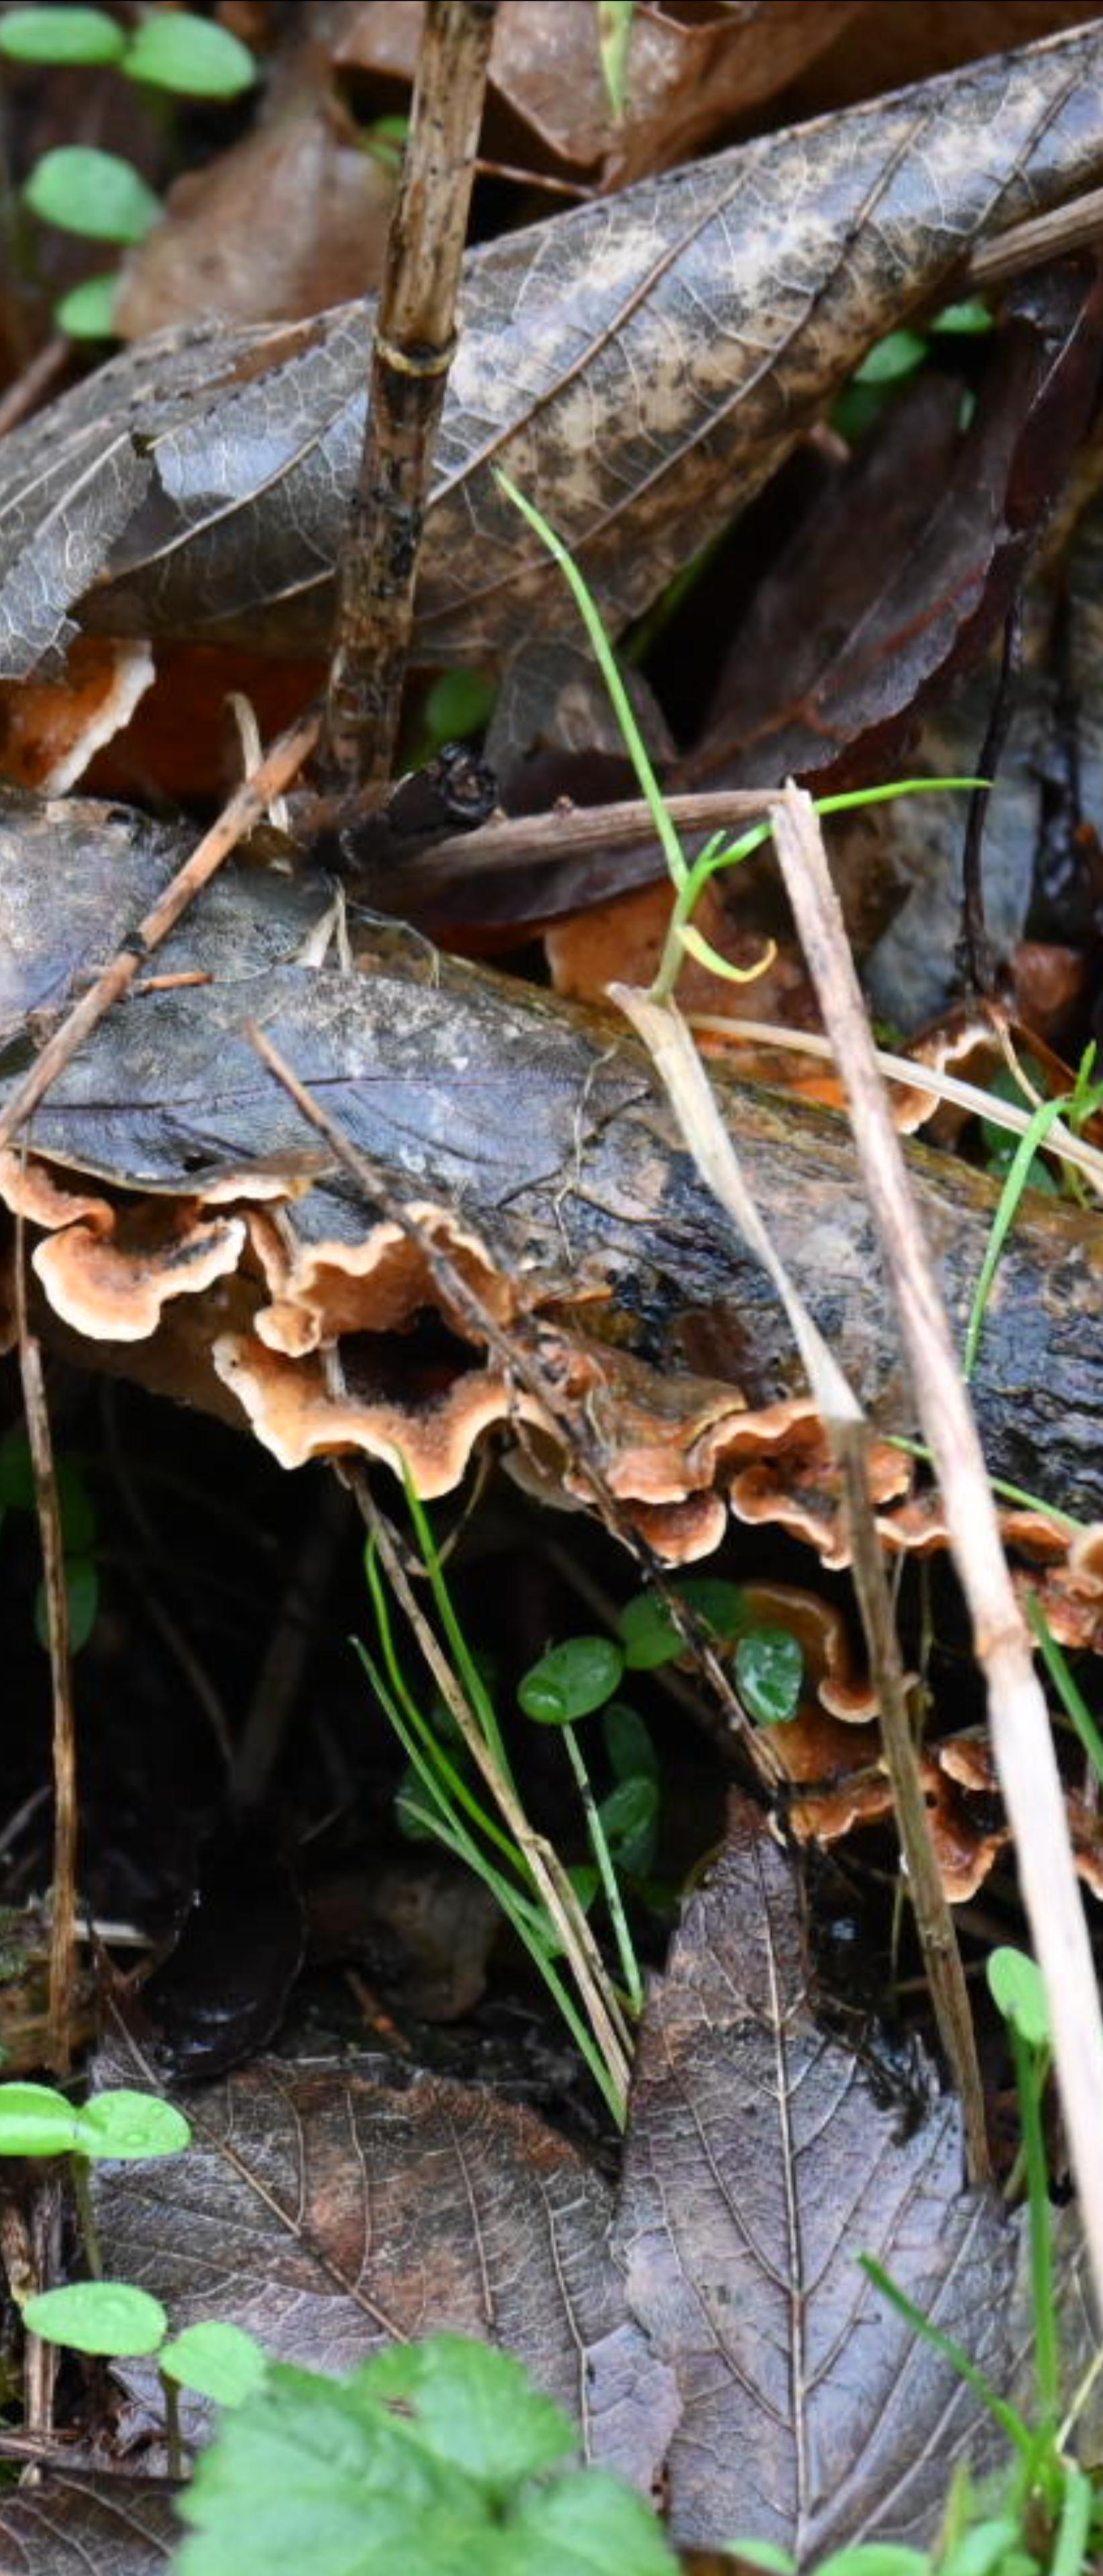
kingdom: Fungi
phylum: Basidiomycota
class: Agaricomycetes
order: Russulales
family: Stereaceae
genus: Stereum
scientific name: Stereum hirsutum
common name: håret lædersvamp
